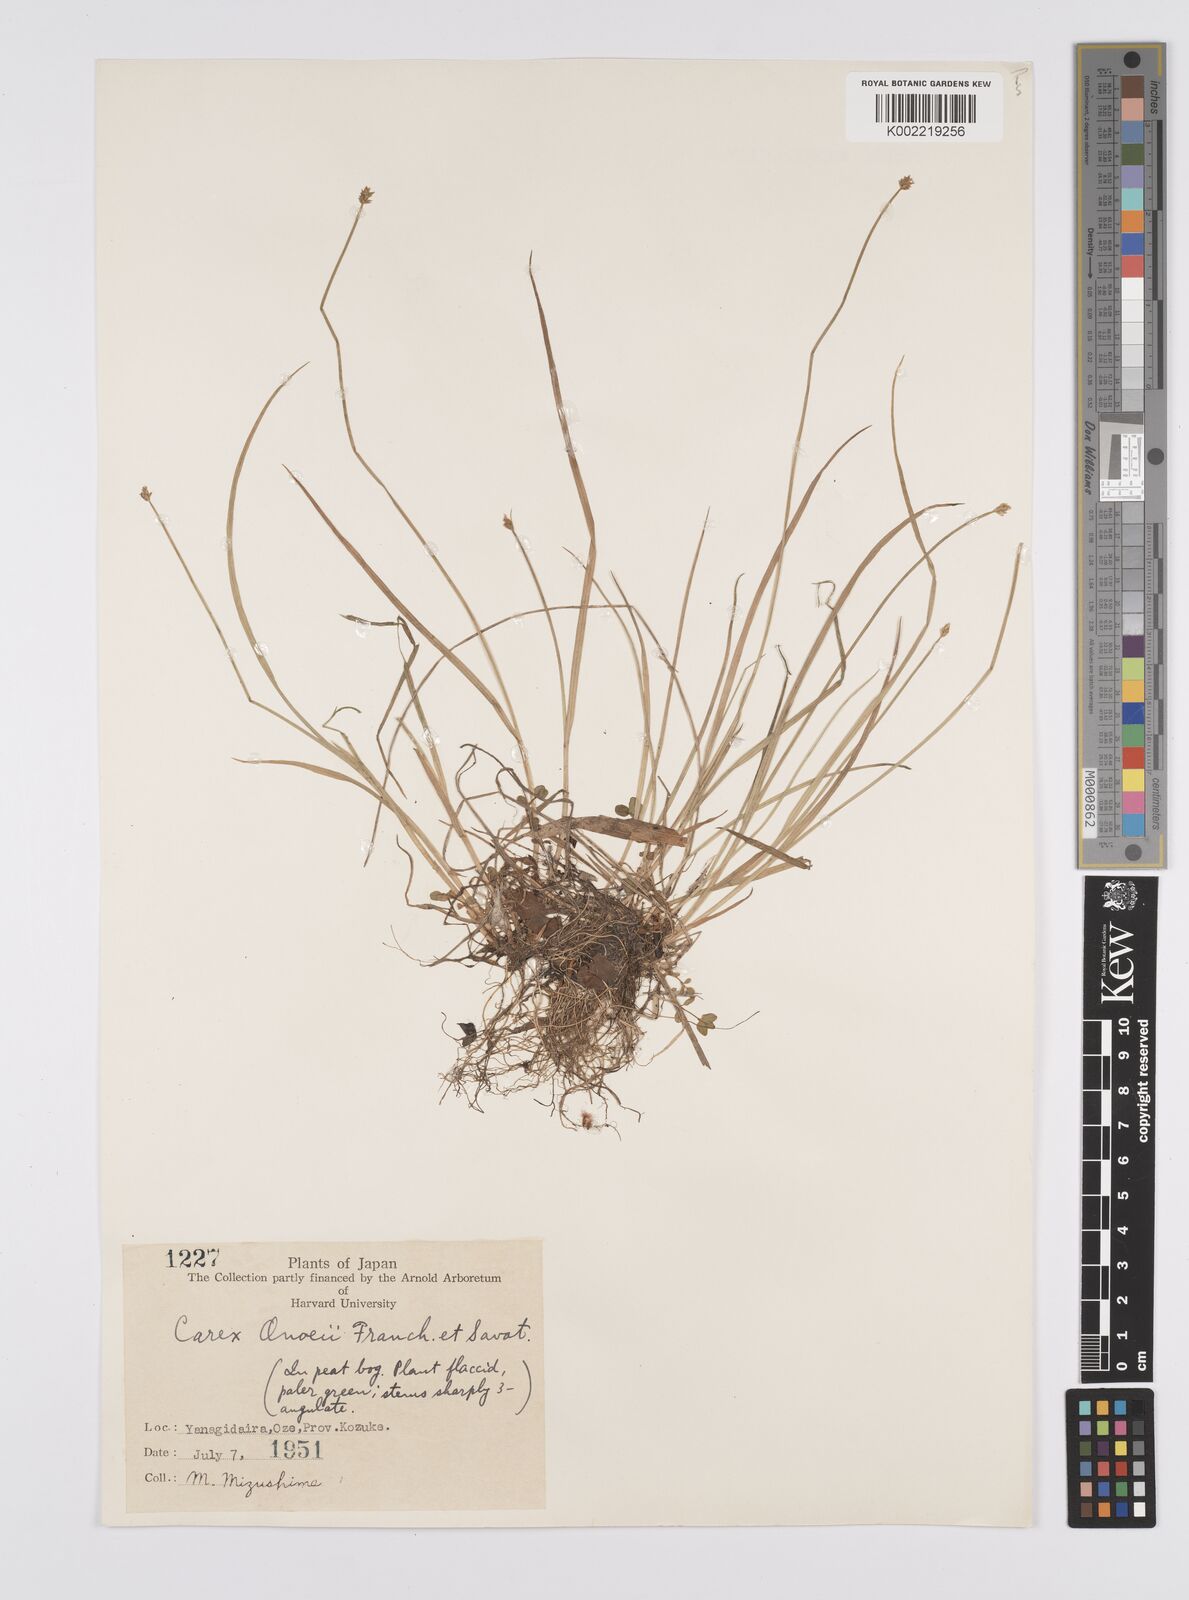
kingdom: Plantae
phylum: Tracheophyta
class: Liliopsida
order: Poales
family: Cyperaceae
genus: Carex
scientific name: Carex onoei
